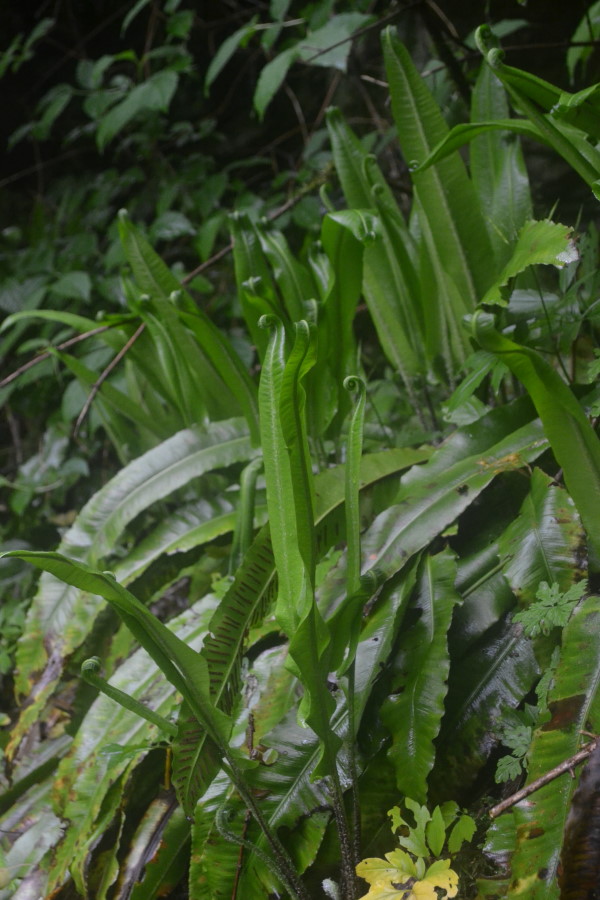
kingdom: Plantae
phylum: Tracheophyta
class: Polypodiopsida
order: Polypodiales
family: Aspleniaceae
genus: Asplenium
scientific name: Asplenium scolopendrium
